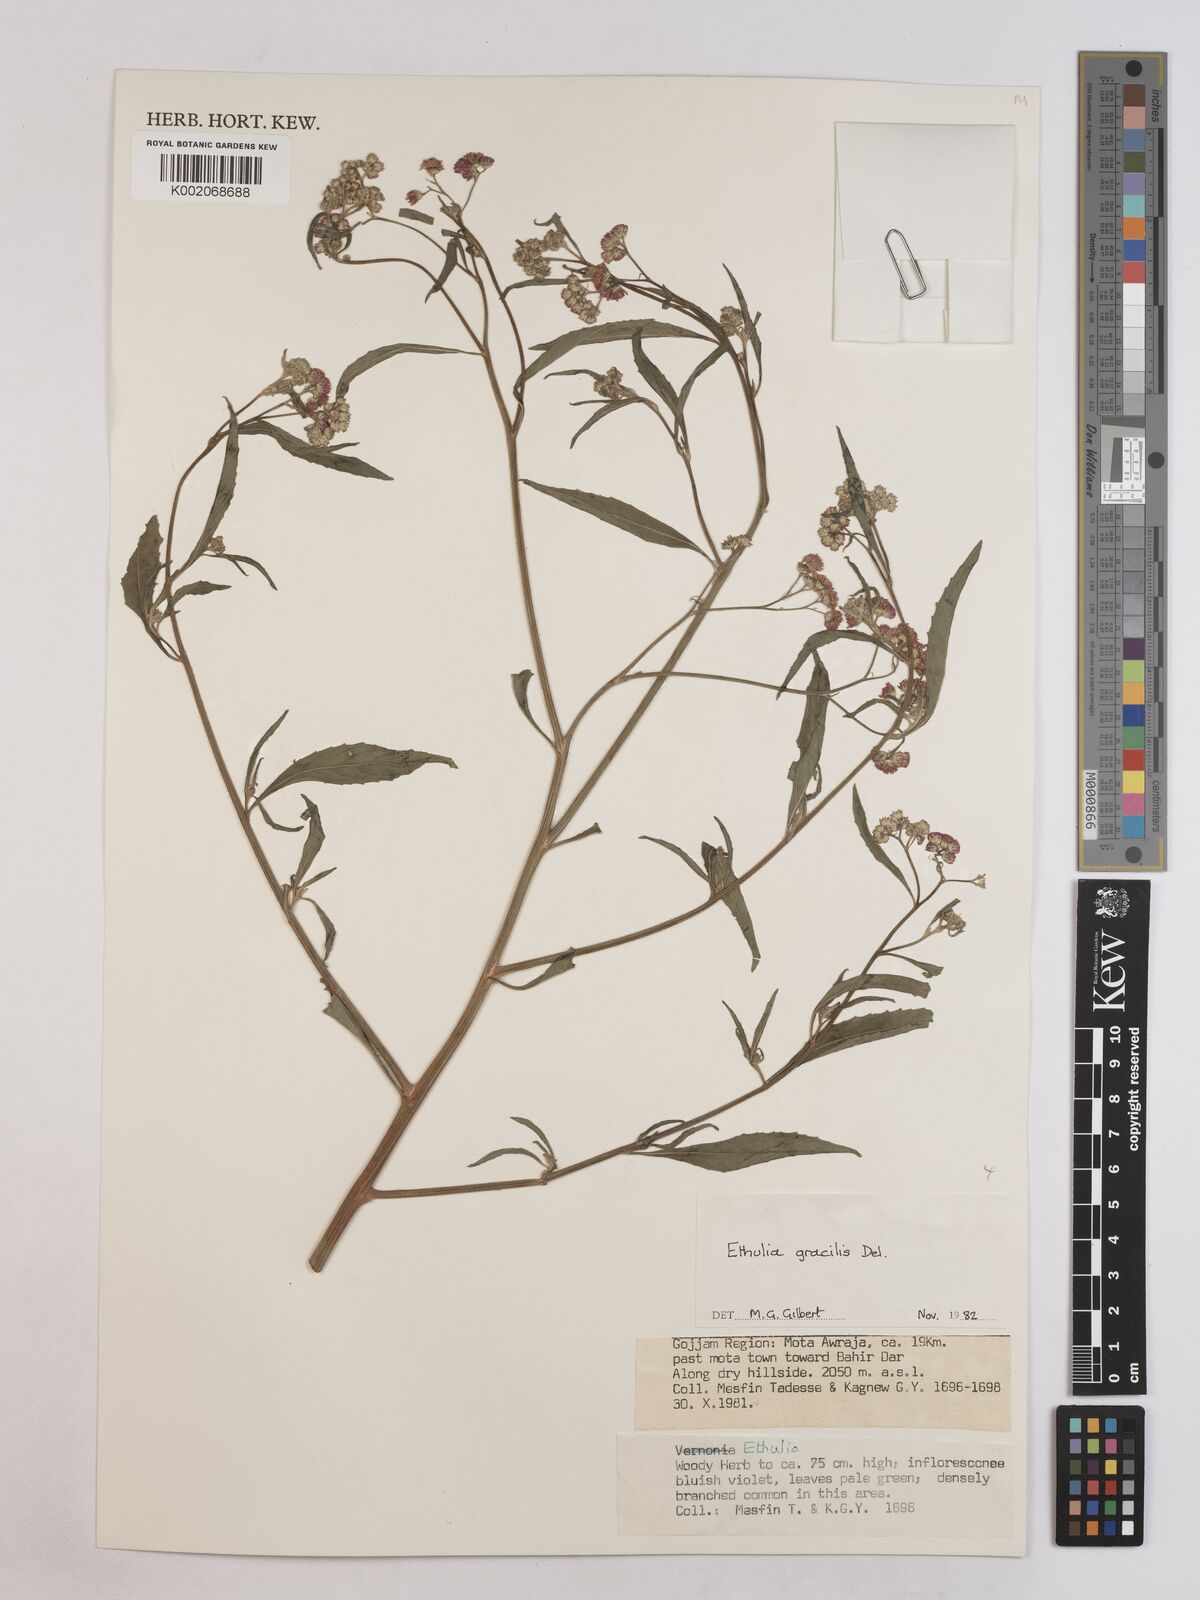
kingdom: Plantae
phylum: Tracheophyta
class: Magnoliopsida
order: Asterales
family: Asteraceae
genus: Ethulia
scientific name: Ethulia gracilis
